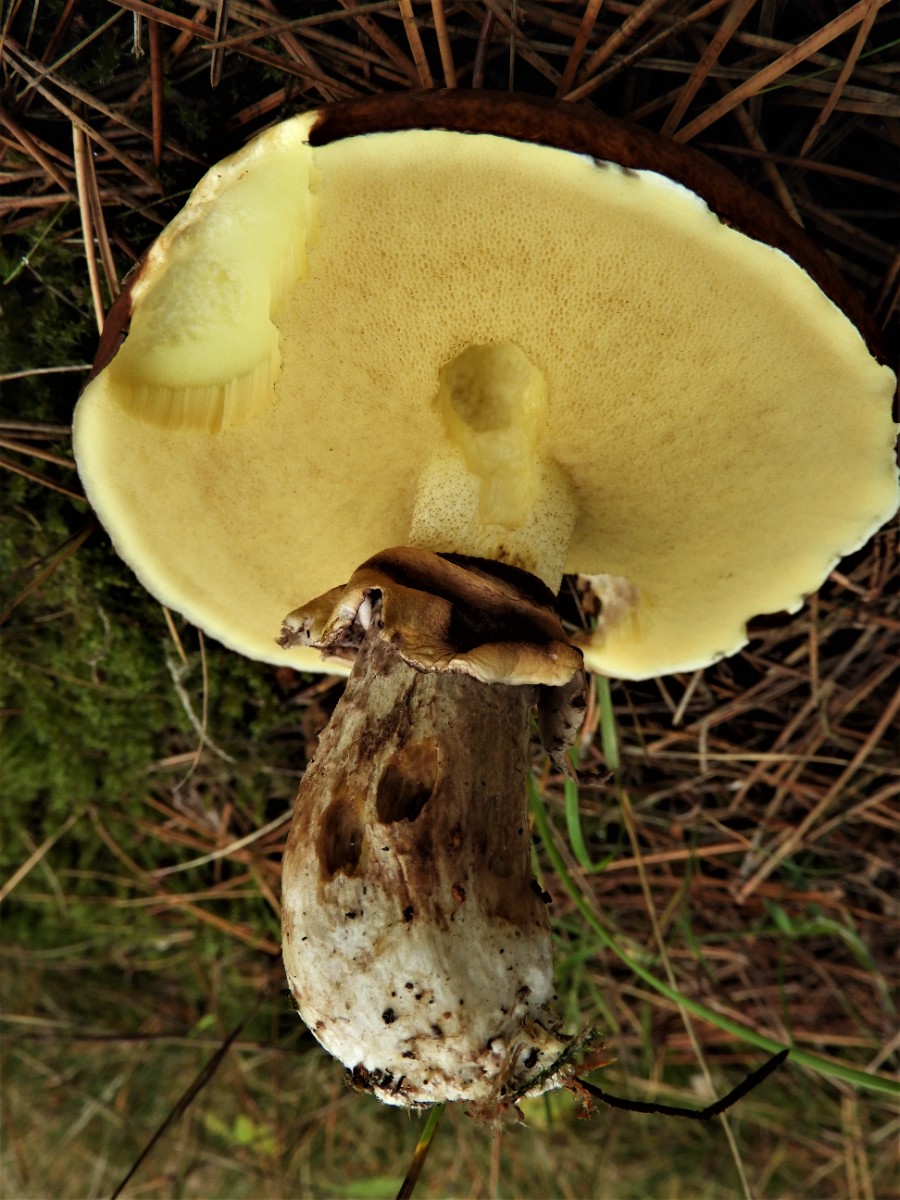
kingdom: Fungi
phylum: Basidiomycota
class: Agaricomycetes
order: Boletales
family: Suillaceae
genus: Suillus
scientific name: Suillus luteus
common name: brungul slimrørhat
